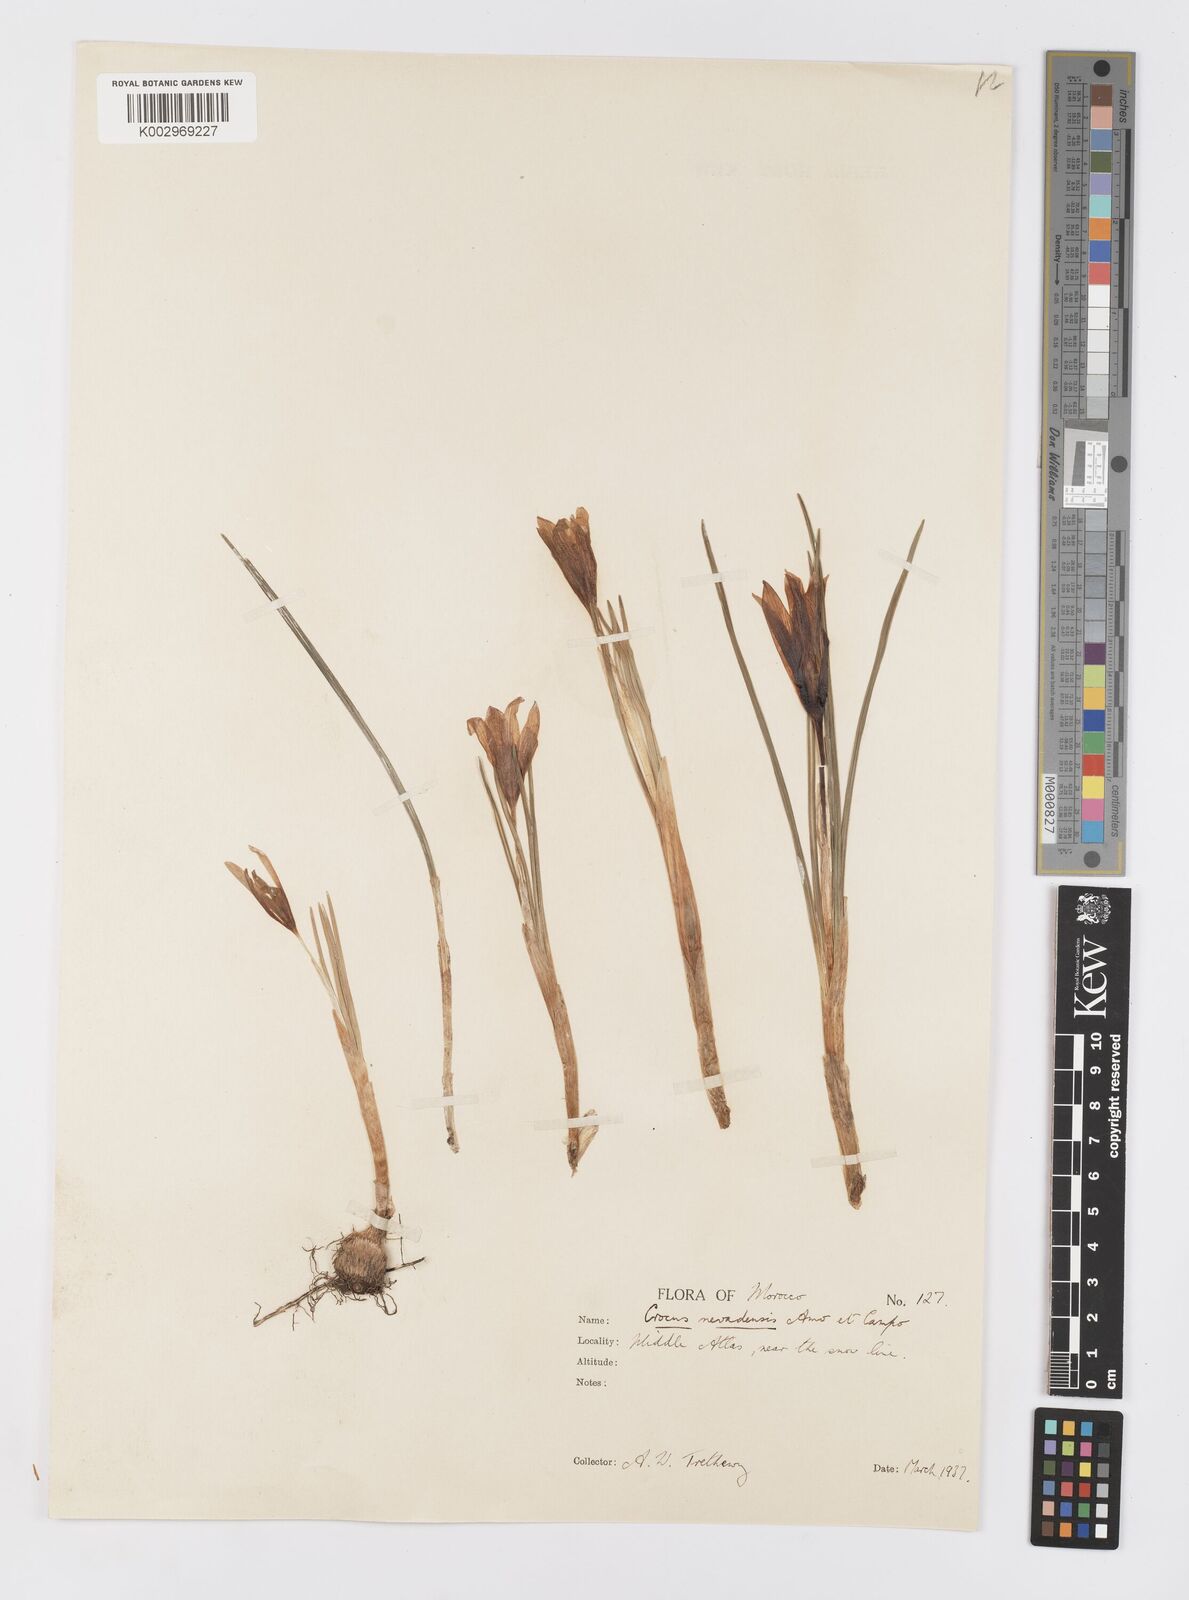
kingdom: Plantae
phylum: Tracheophyta
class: Liliopsida
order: Asparagales
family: Iridaceae
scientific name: Iridaceae
